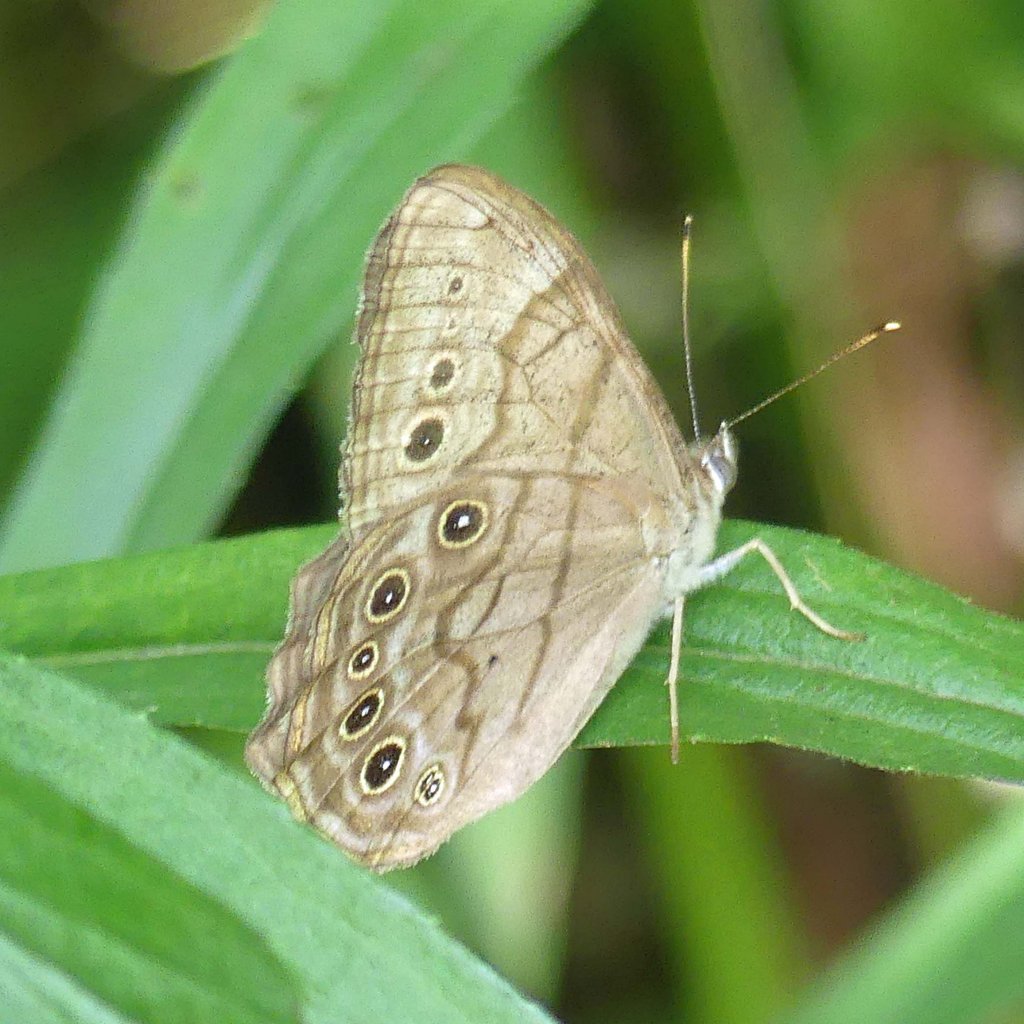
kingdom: Animalia
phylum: Arthropoda
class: Insecta
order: Lepidoptera
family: Nymphalidae
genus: Lethe
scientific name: Lethe anthedon
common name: Northern Pearly-Eye
